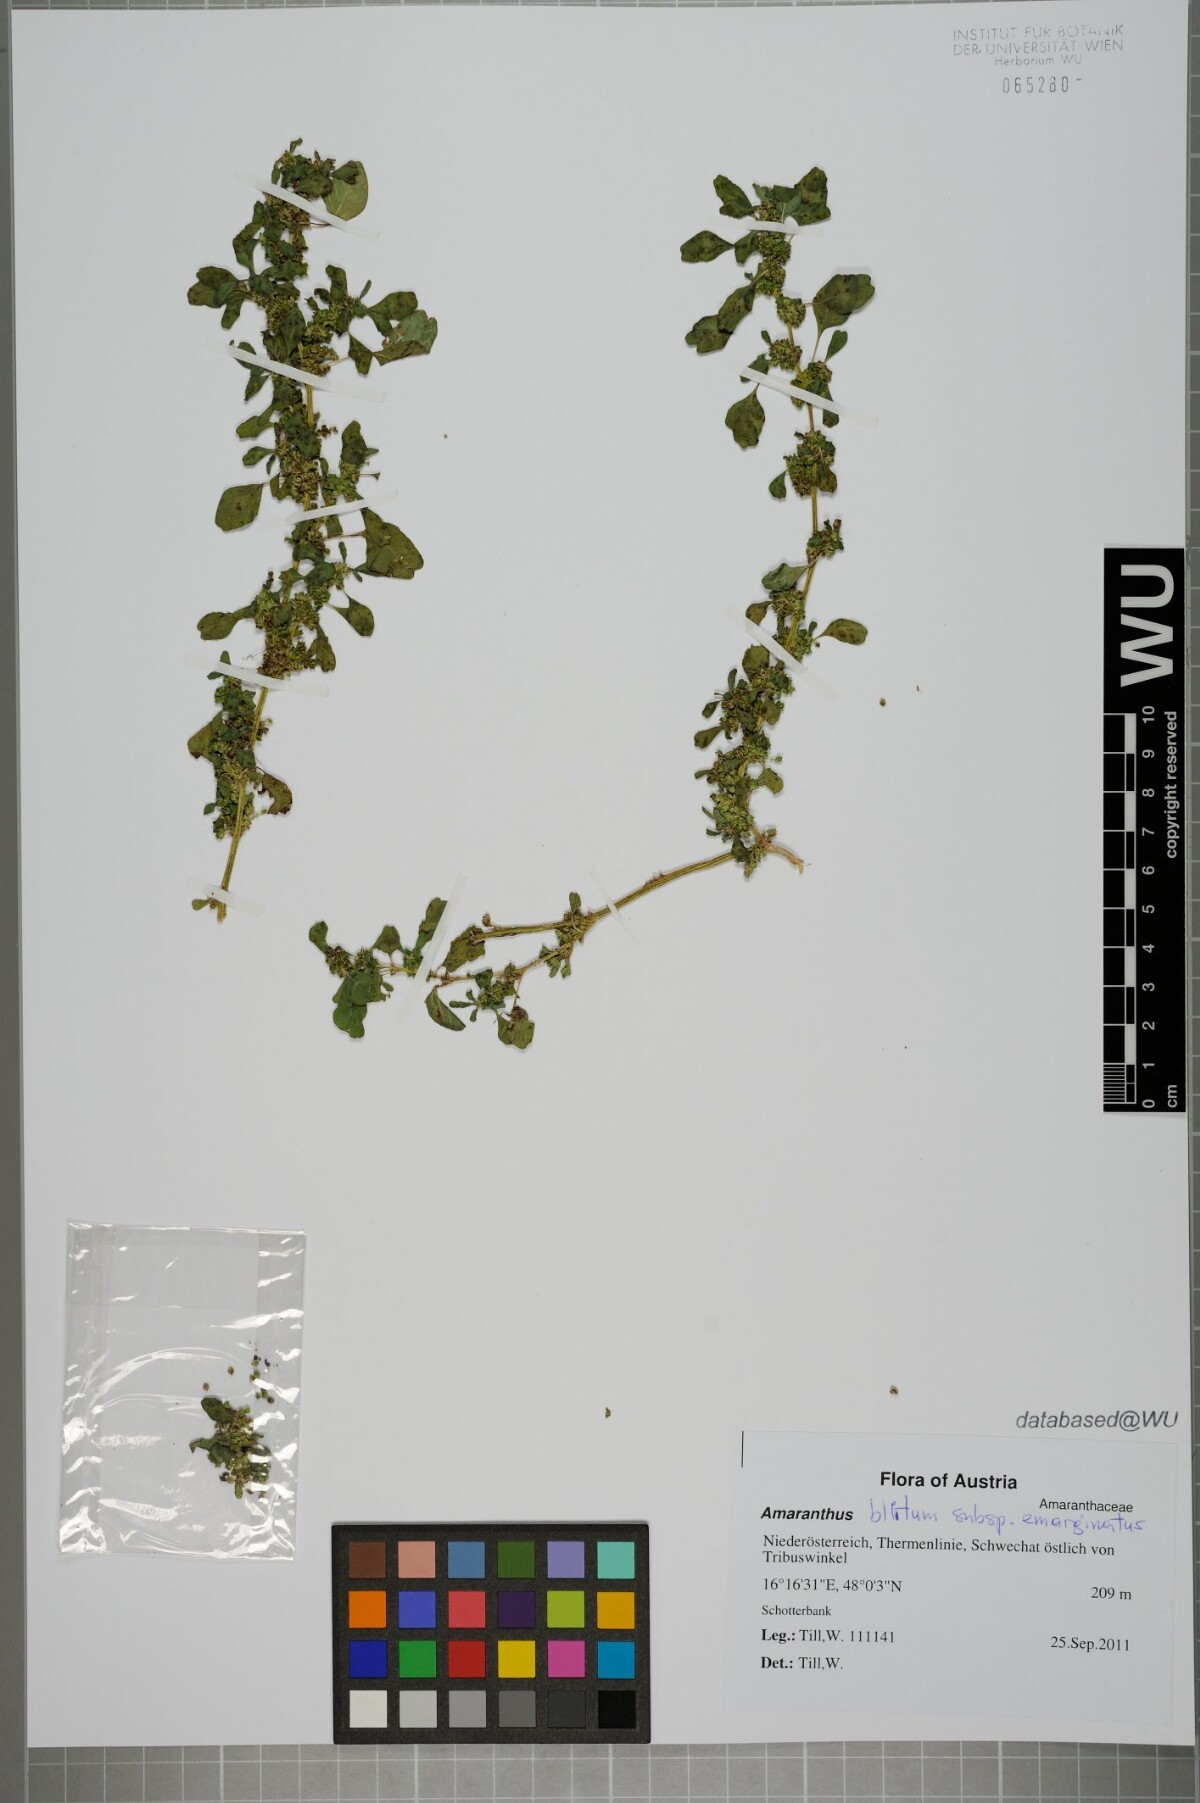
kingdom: Plantae
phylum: Tracheophyta
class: Magnoliopsida
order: Caryophyllales
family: Amaranthaceae
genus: Amaranthus
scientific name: Amaranthus emarginatus
